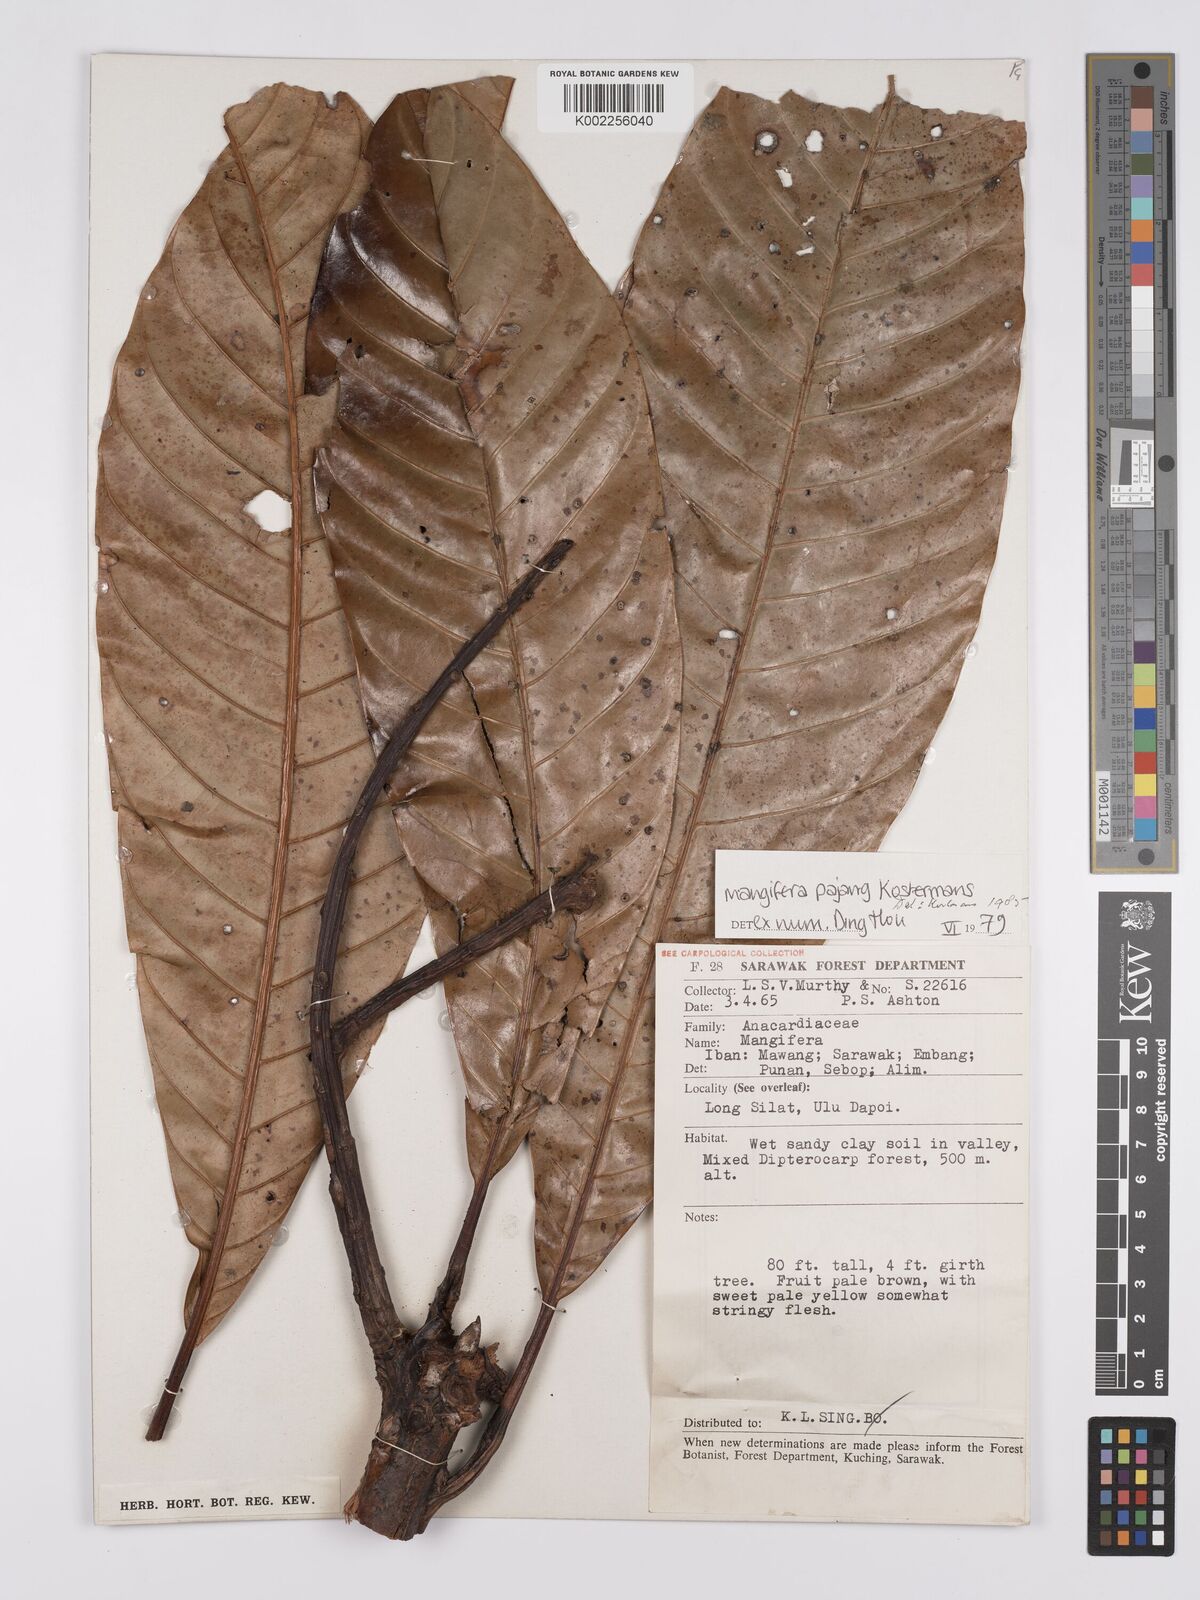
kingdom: Plantae
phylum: Tracheophyta
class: Magnoliopsida
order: Sapindales
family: Anacardiaceae
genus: Mangifera
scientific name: Mangifera pajang
